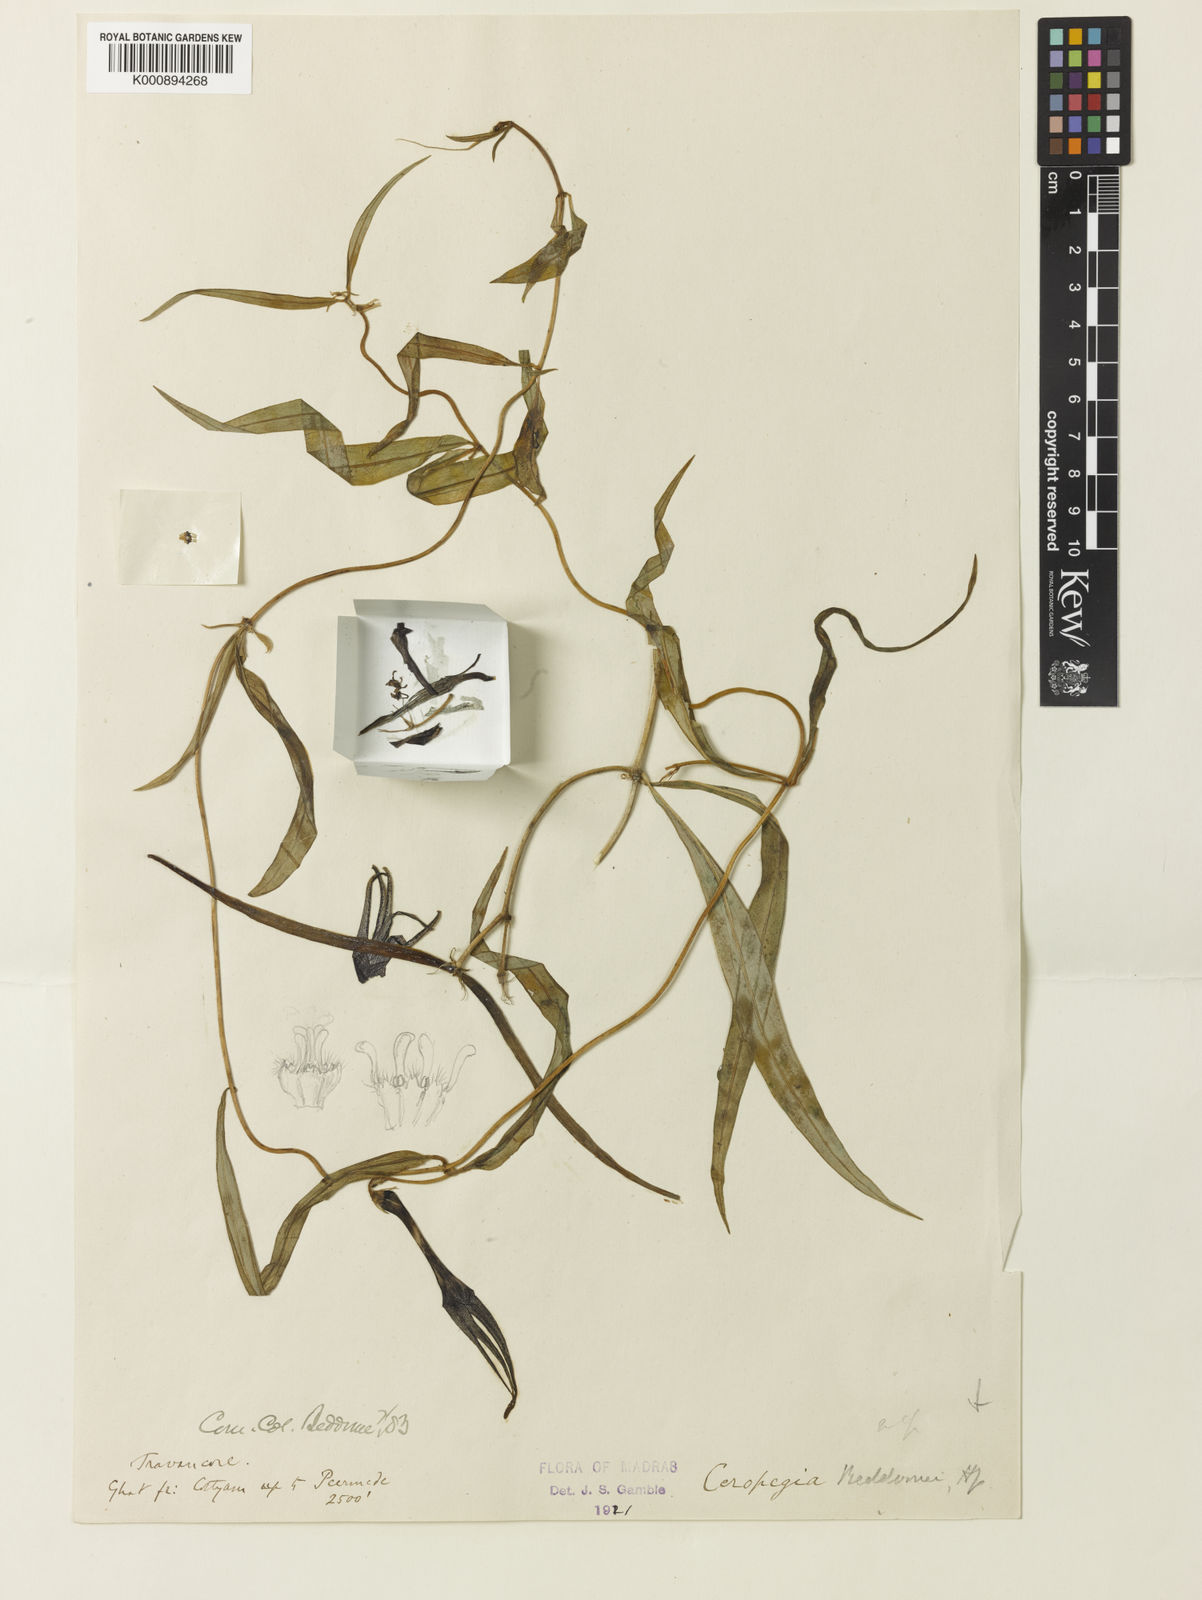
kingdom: Plantae
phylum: Tracheophyta
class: Magnoliopsida
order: Gentianales
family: Apocynaceae
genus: Ceropegia
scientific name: Ceropegia beddomei
